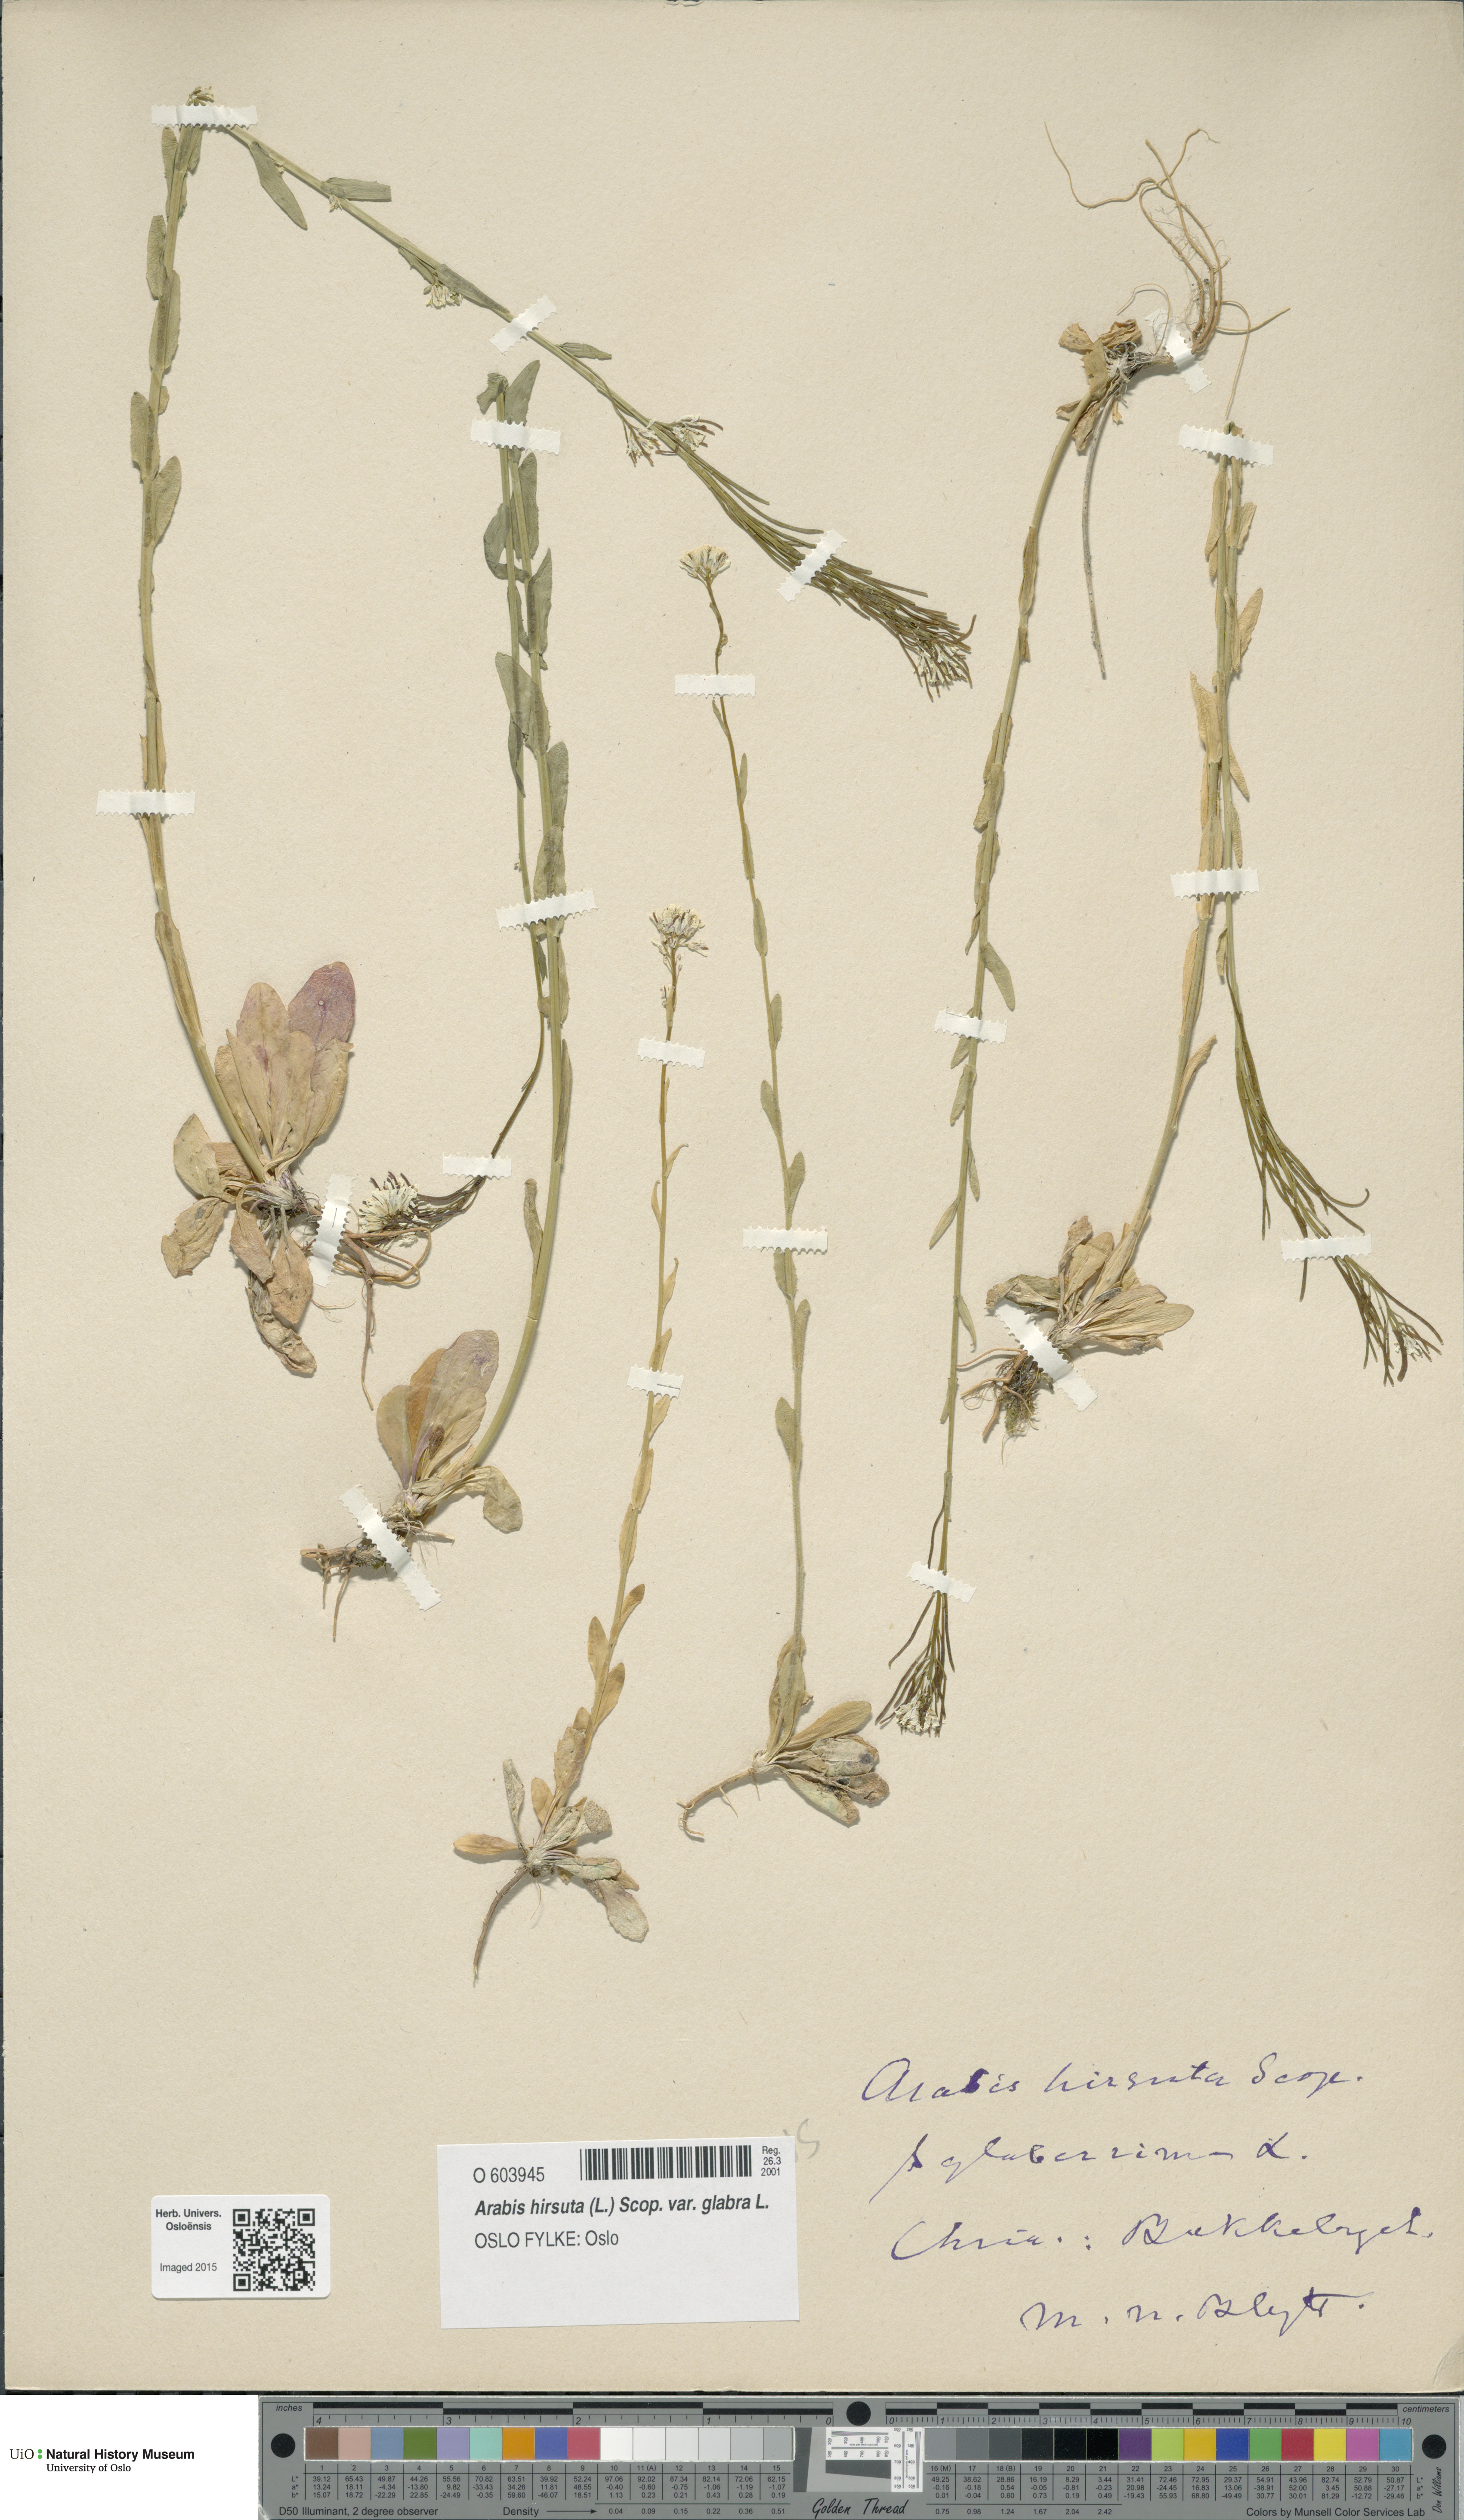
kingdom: Plantae
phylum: Tracheophyta
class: Magnoliopsida
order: Brassicales
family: Brassicaceae
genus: Arabis
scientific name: Arabis hirsuta
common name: Hairy rock-cress
